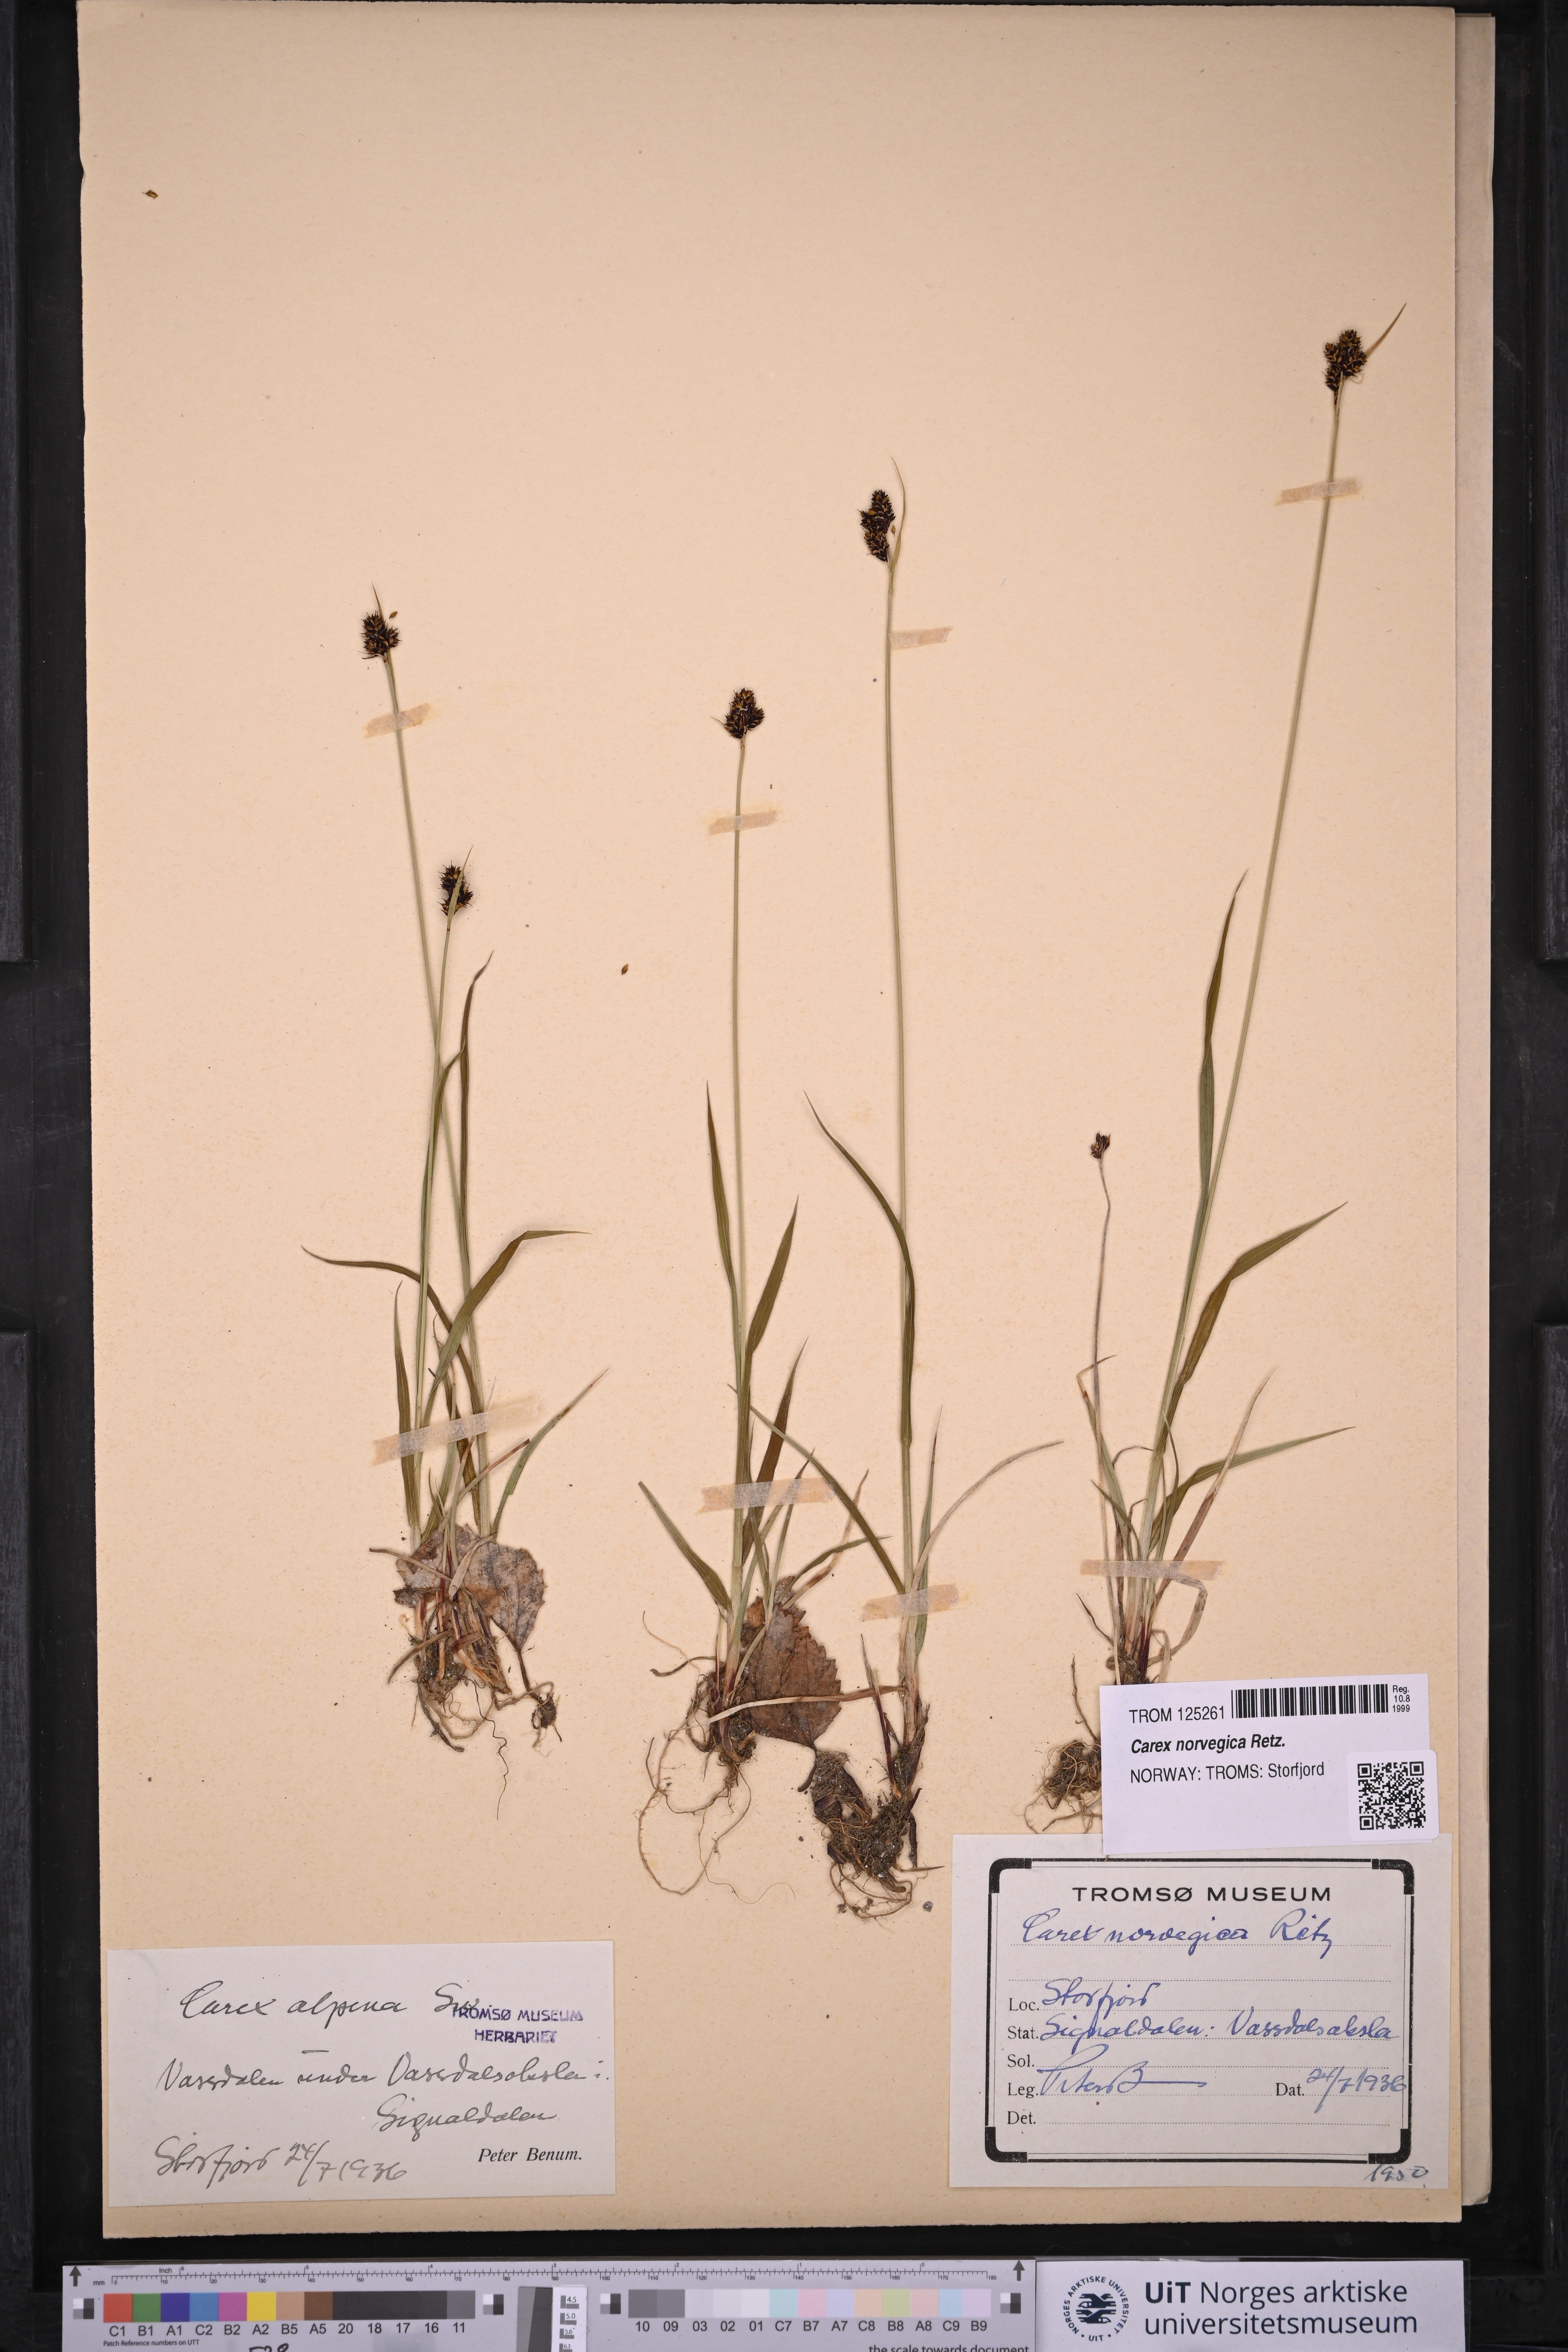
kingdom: Plantae
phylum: Tracheophyta
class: Liliopsida
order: Poales
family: Cyperaceae
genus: Carex
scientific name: Carex norvegica
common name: Close-headed alpine-sedge
